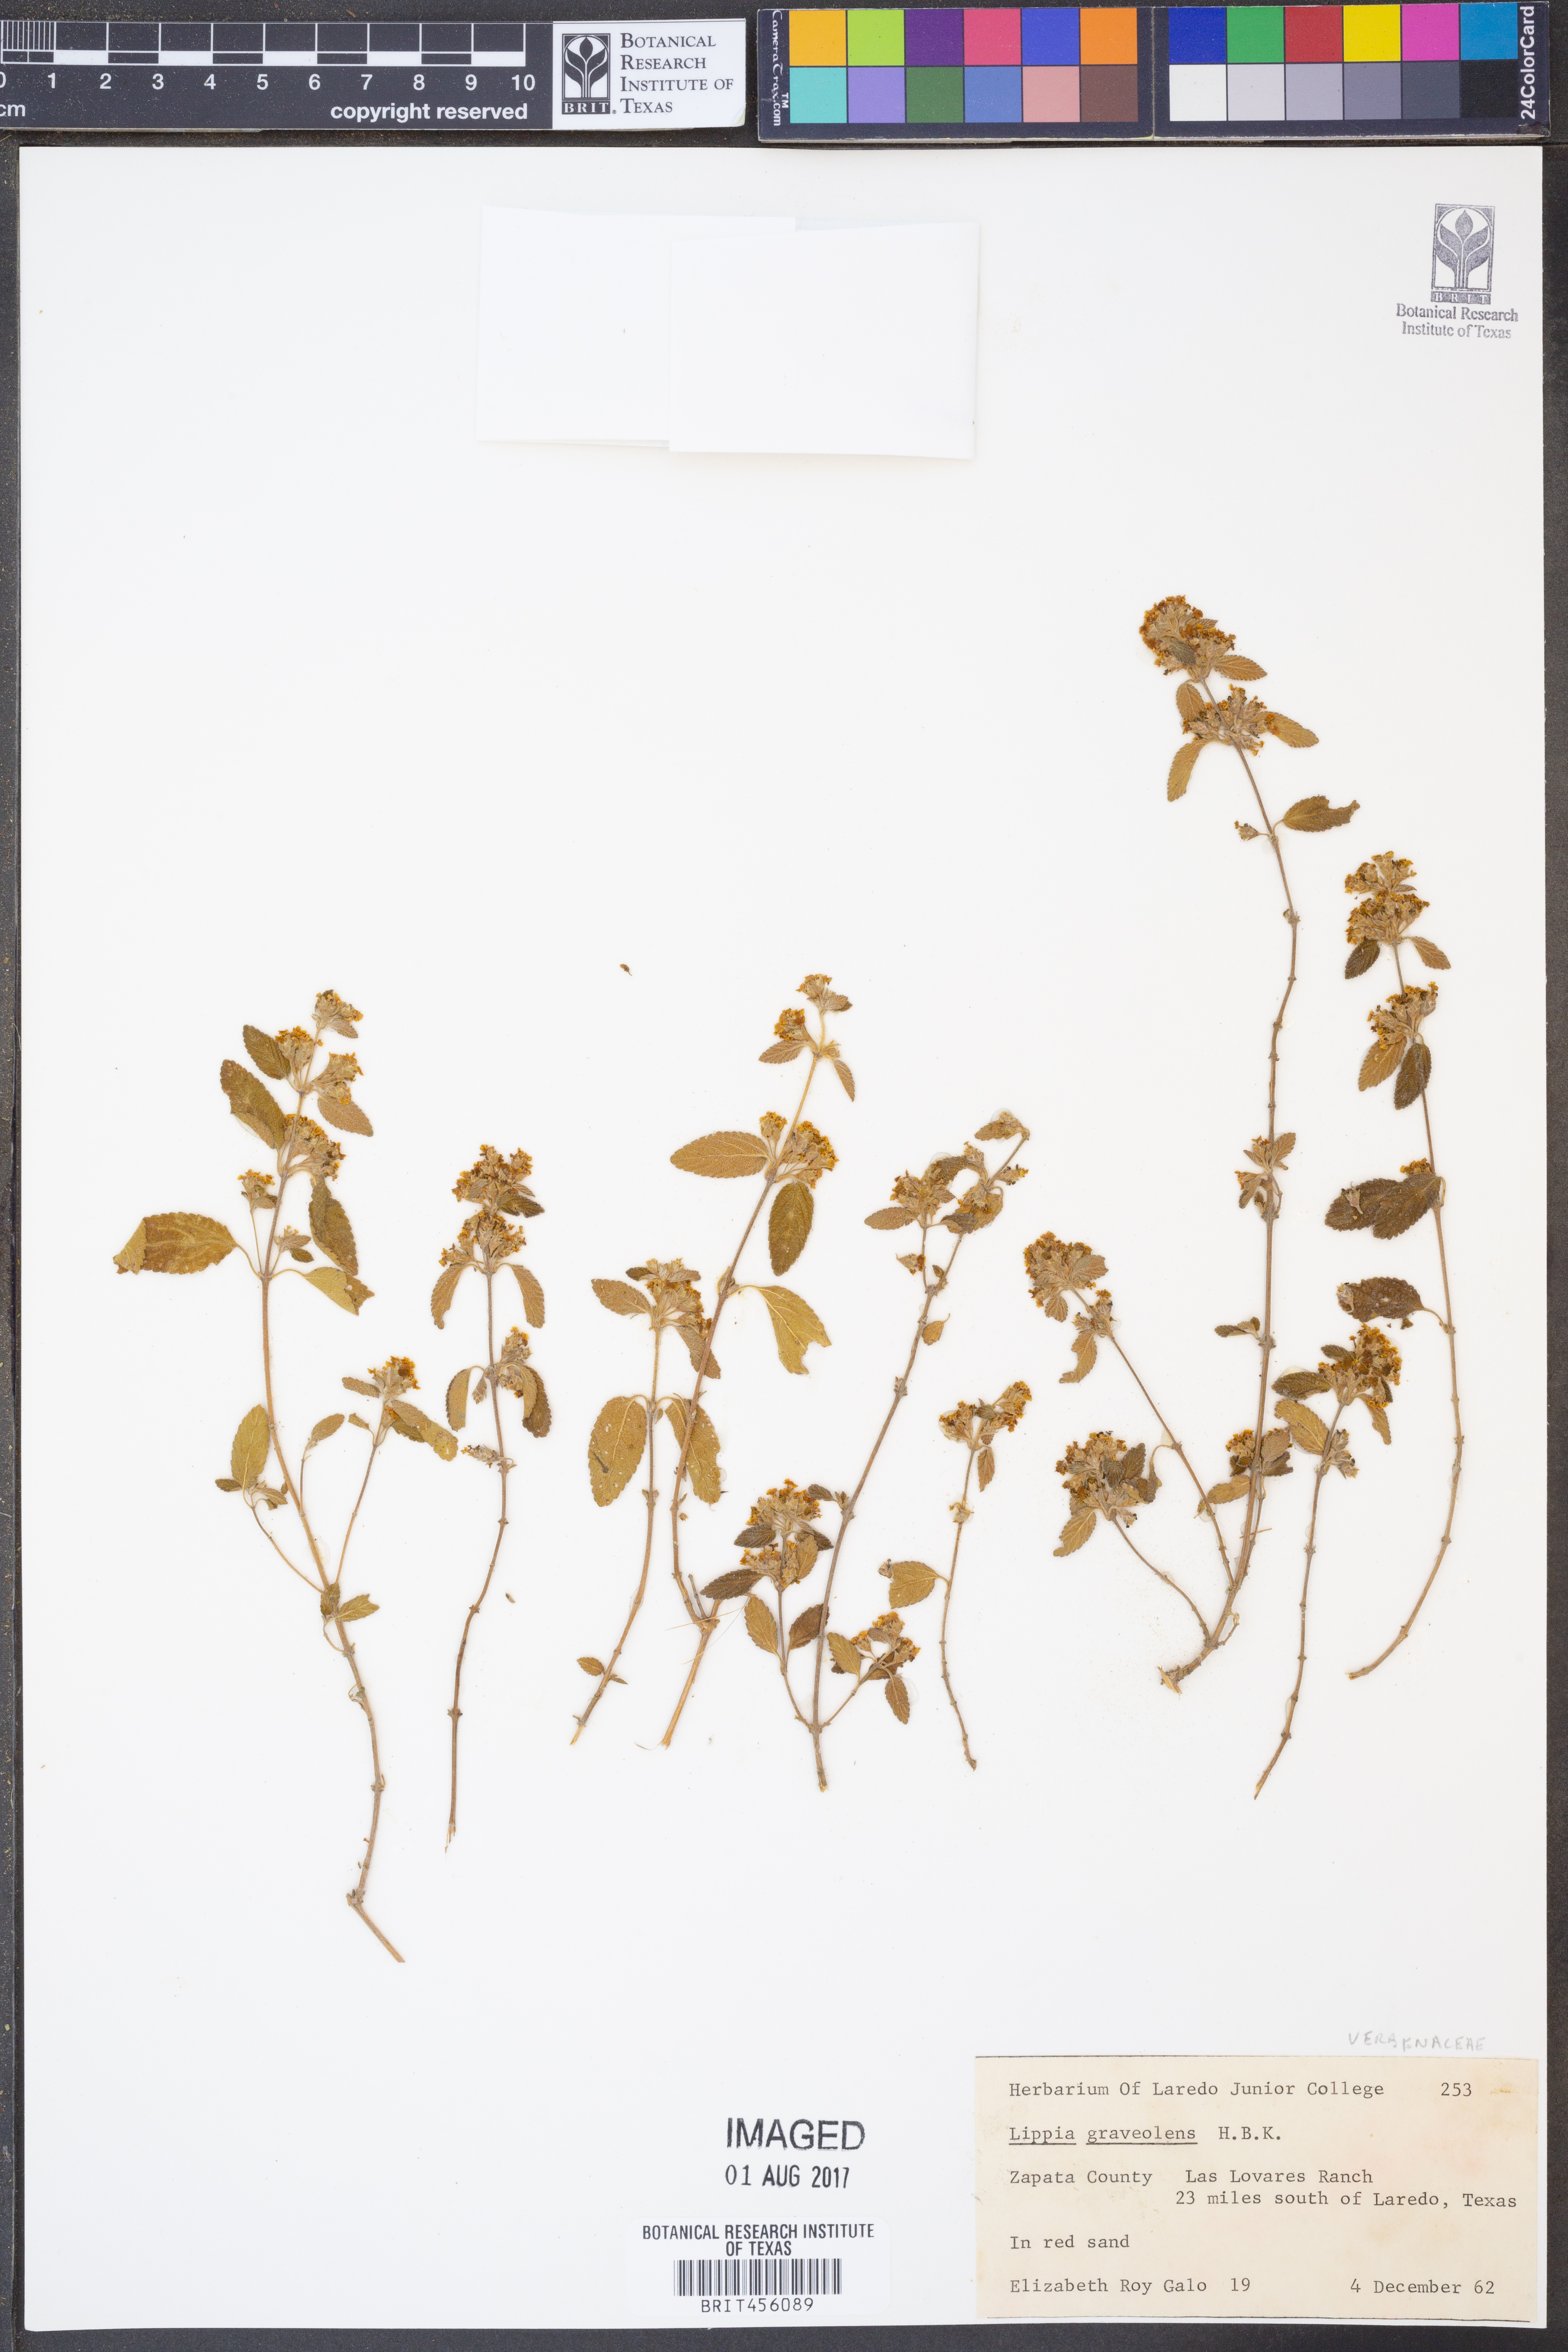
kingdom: Plantae
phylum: Tracheophyta
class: Magnoliopsida
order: Lamiales
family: Verbenaceae
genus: Lippia
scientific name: Lippia origanoides
